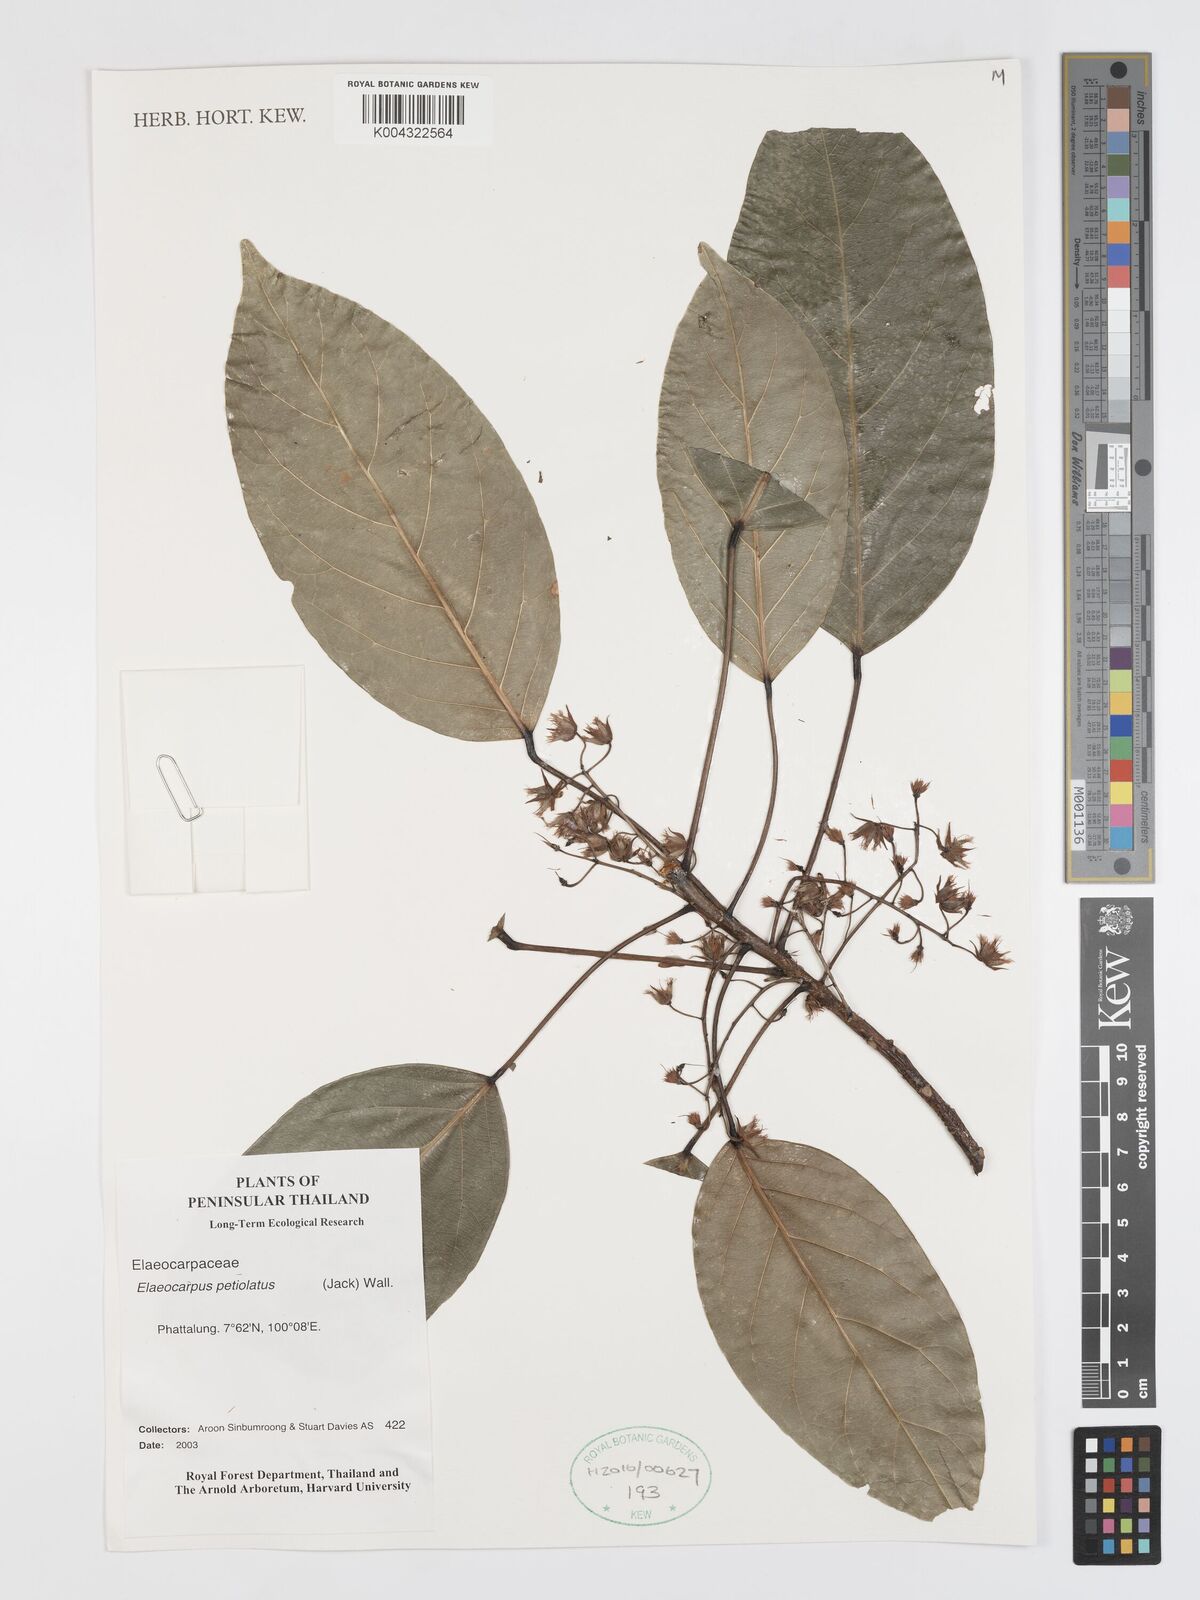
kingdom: Plantae
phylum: Tracheophyta
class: Magnoliopsida
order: Oxalidales
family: Elaeocarpaceae
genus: Elaeocarpus
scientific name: Elaeocarpus petiolatus
